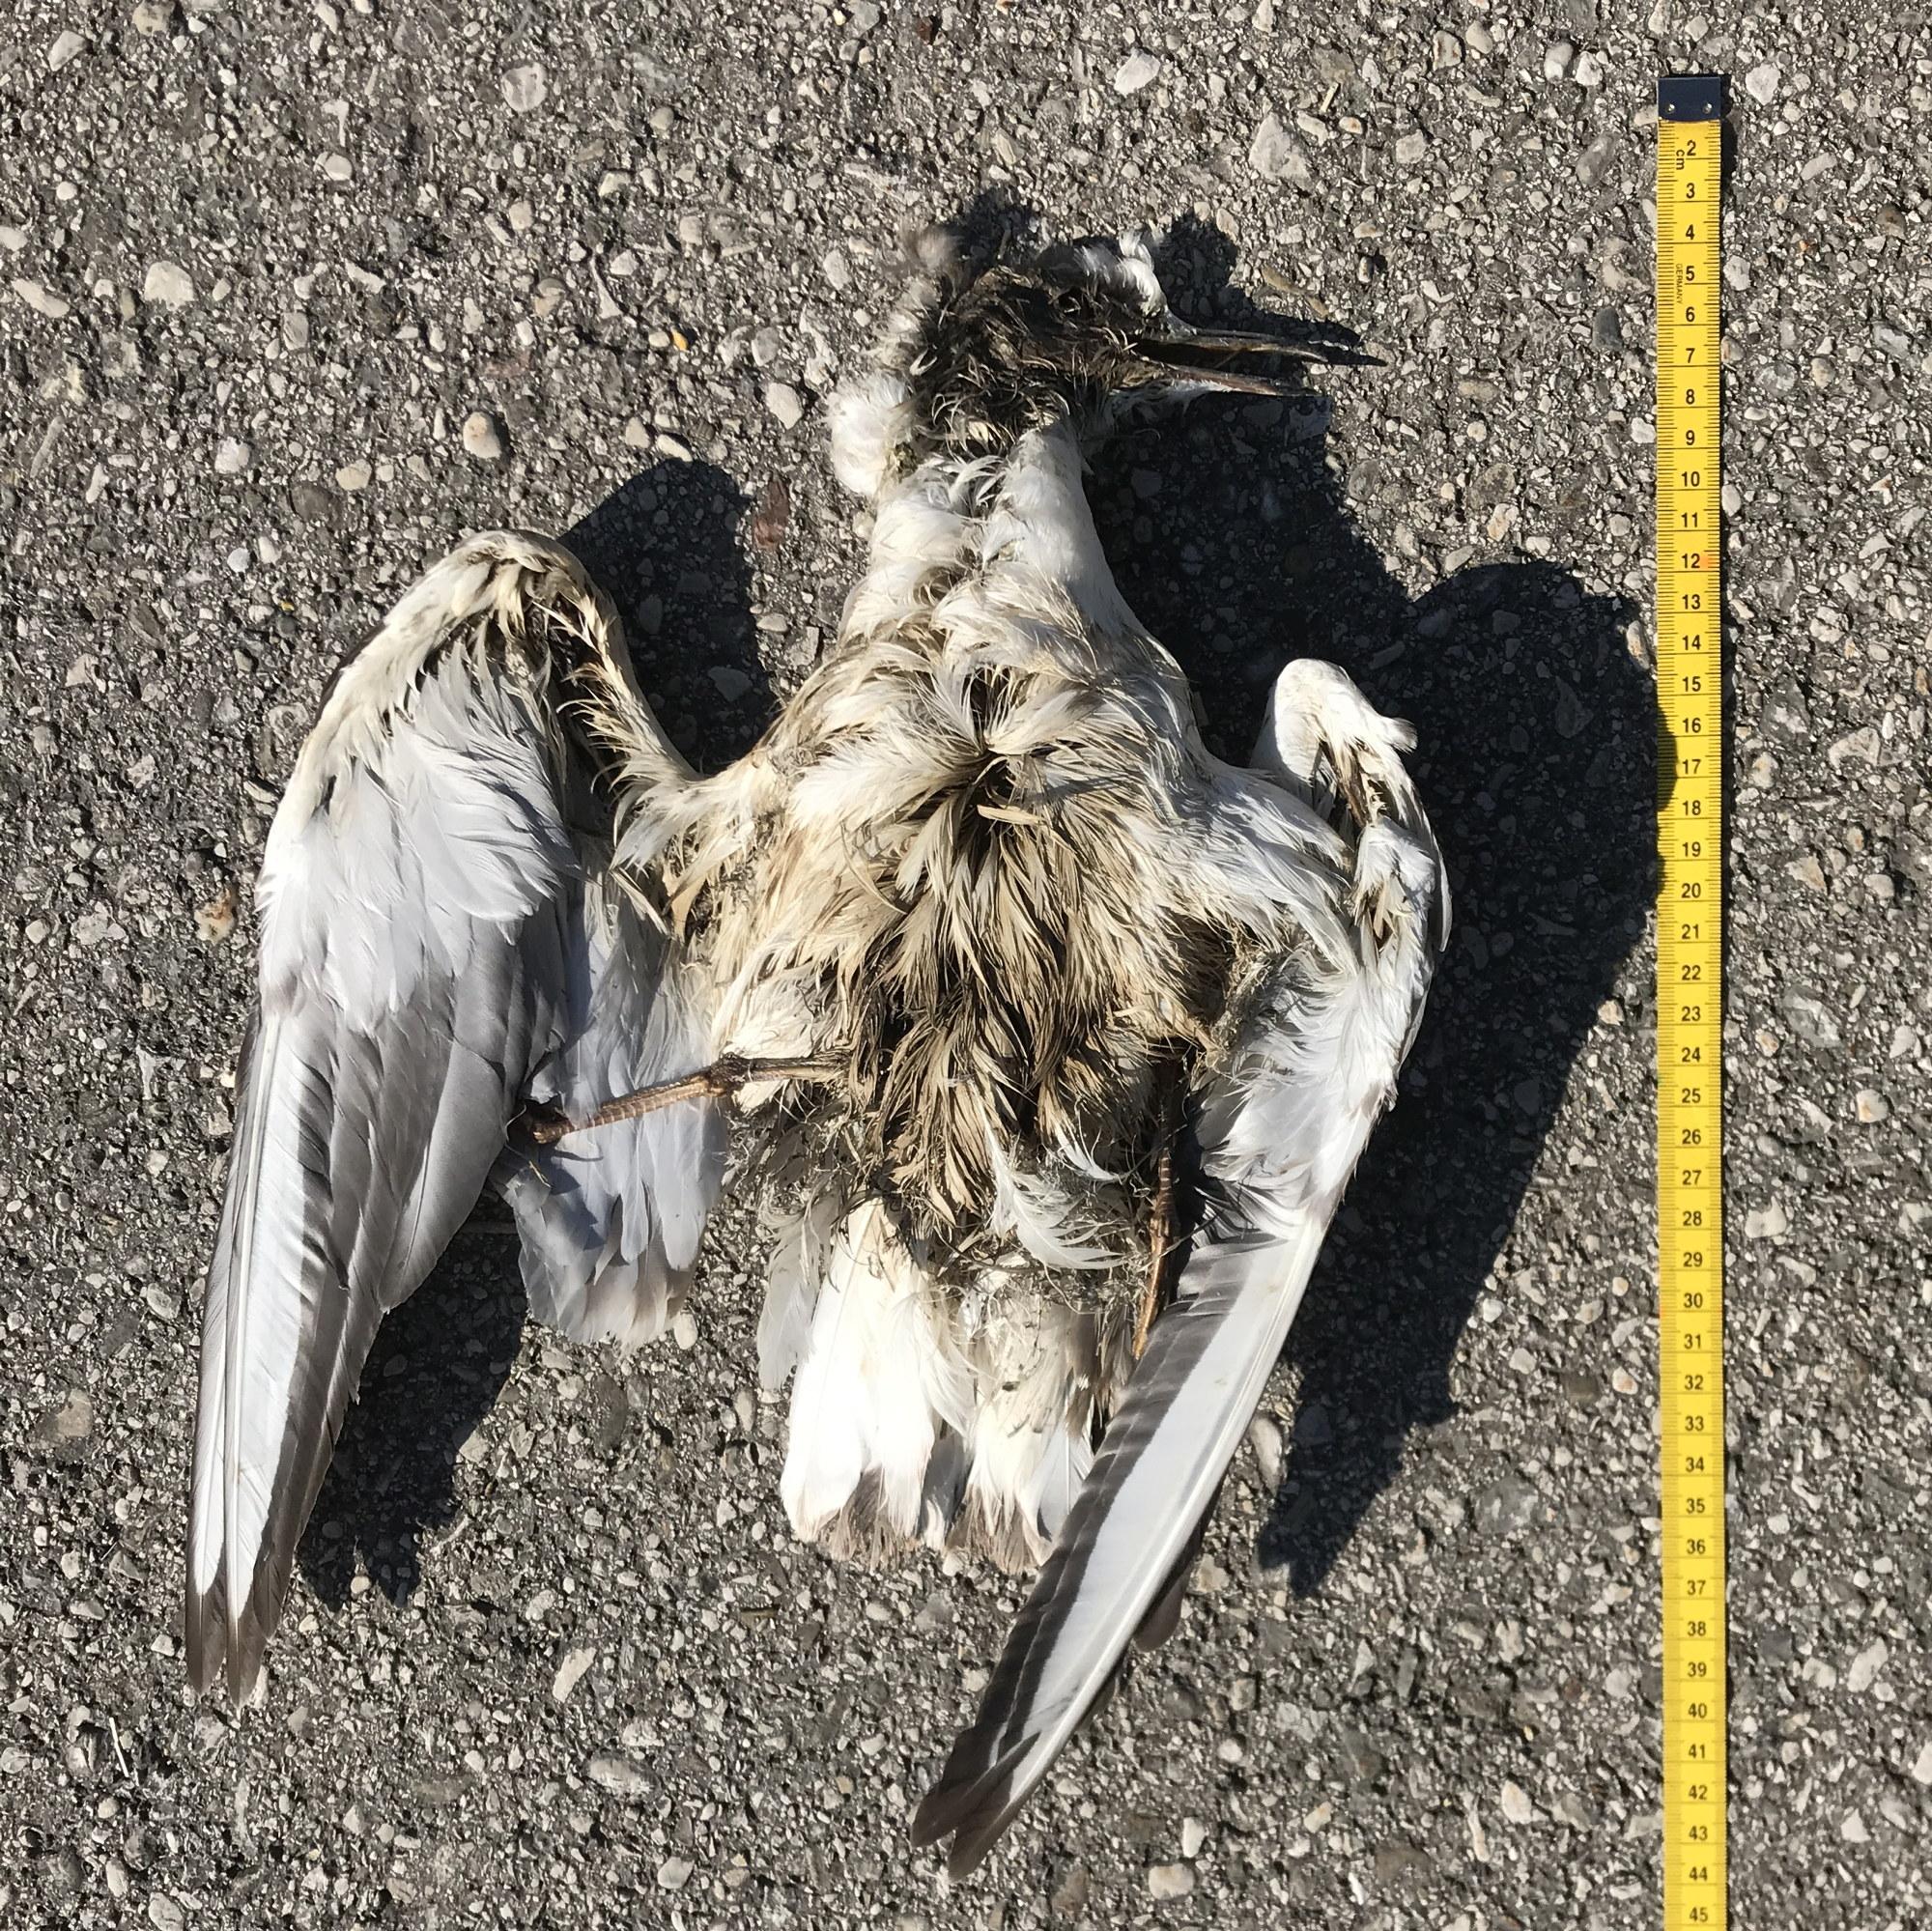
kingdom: Animalia
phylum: Chordata
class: Aves
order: Charadriiformes
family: Laridae
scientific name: Laridae
